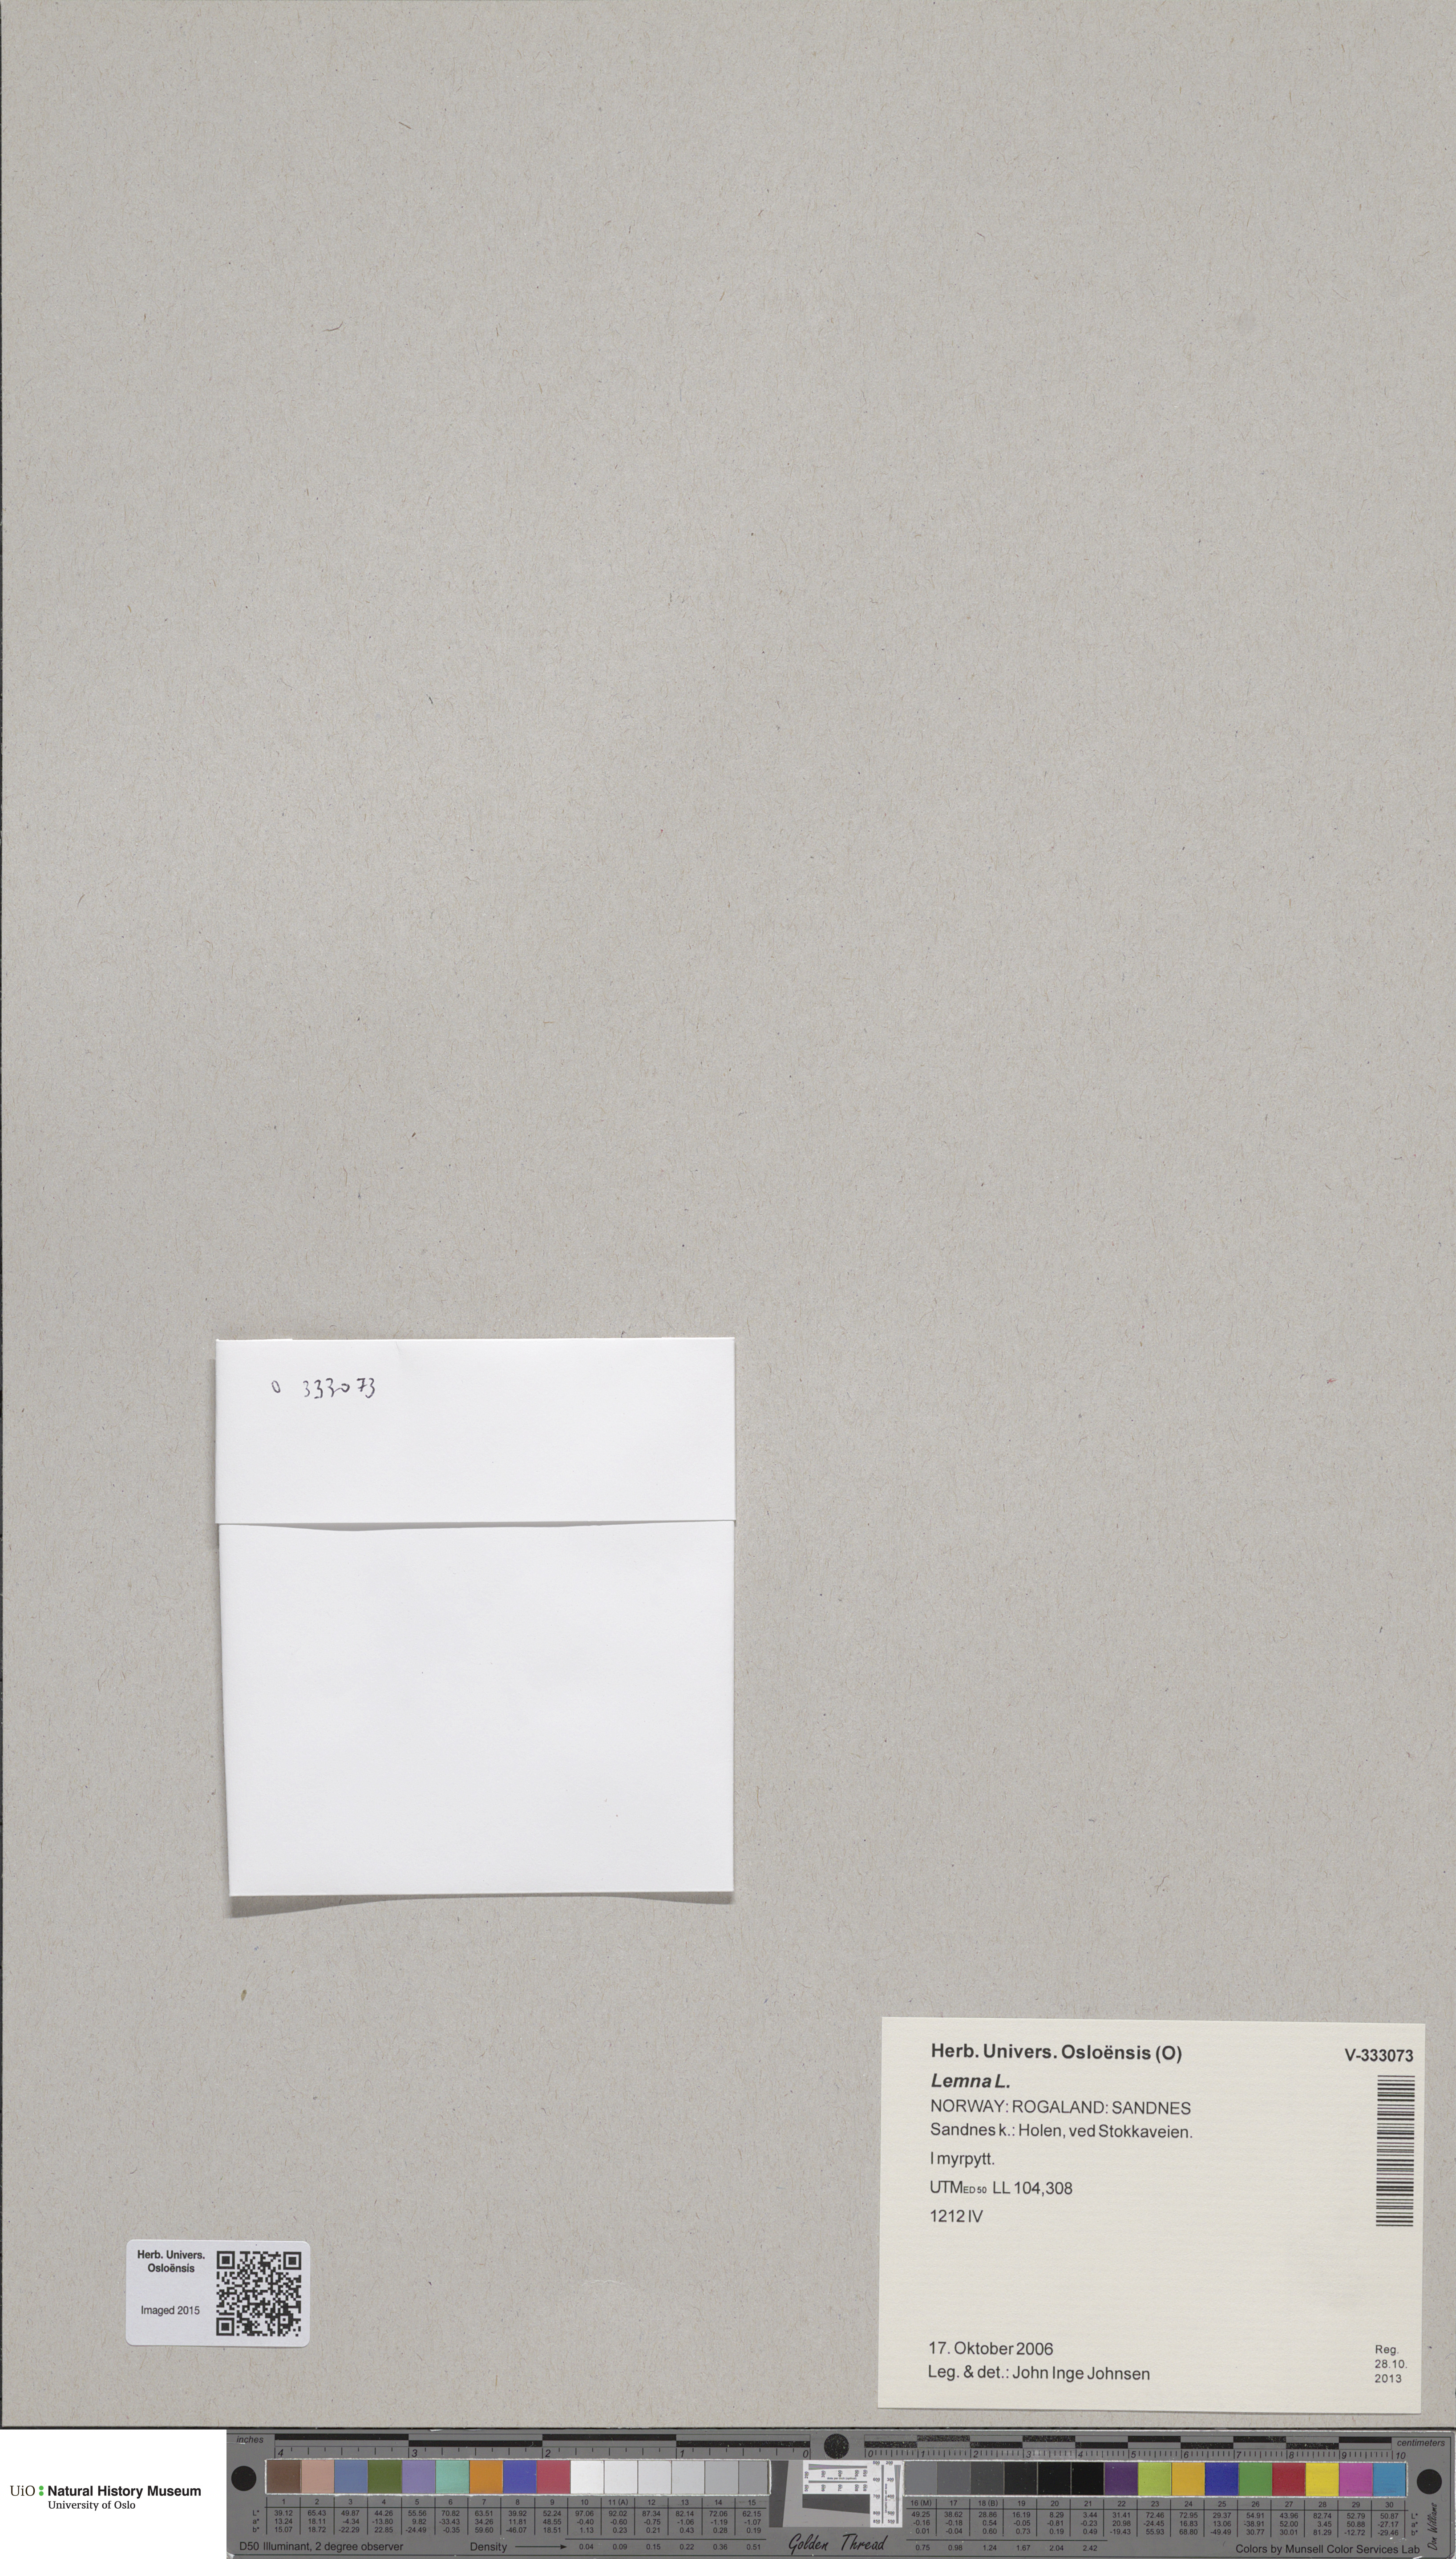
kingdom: Plantae
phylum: Tracheophyta
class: Liliopsida
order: Alismatales
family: Araceae
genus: Lemna
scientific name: Lemna minor
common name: Common duckweed
